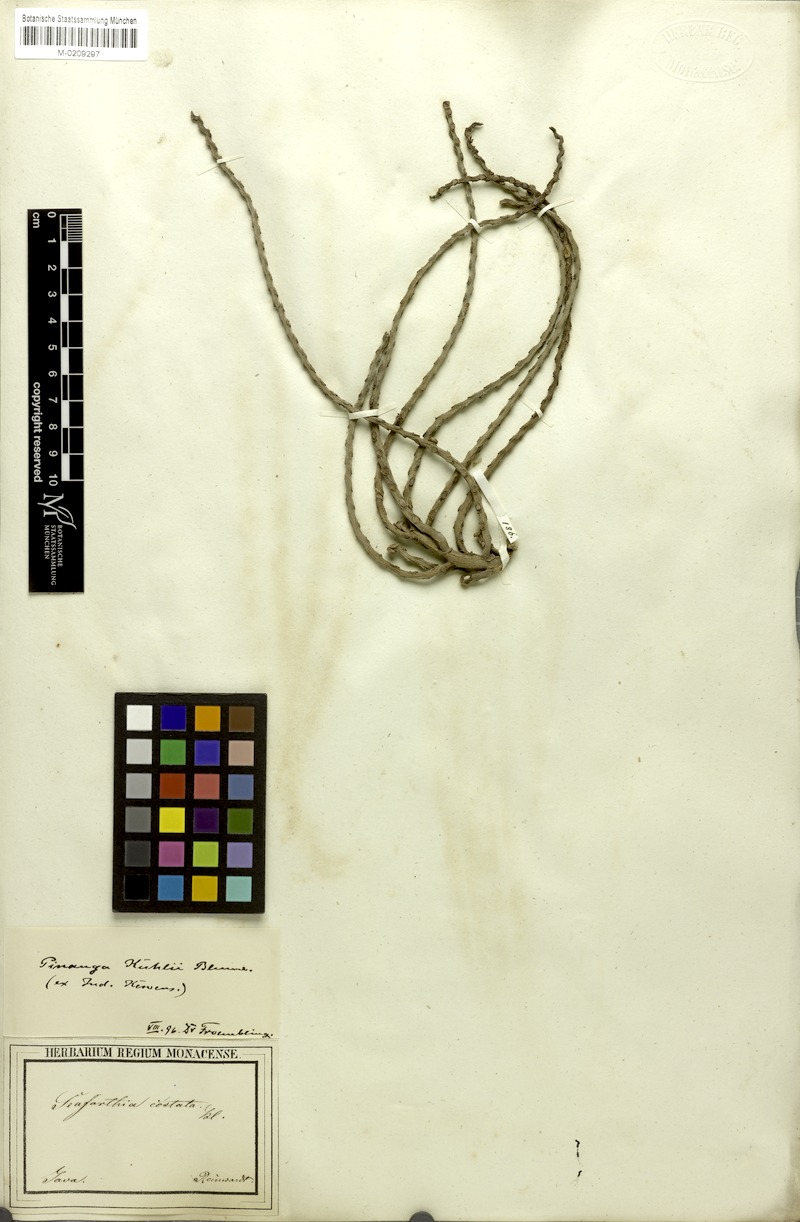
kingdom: Plantae
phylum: Tracheophyta
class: Liliopsida
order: Arecales
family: Arecaceae
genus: Pinanga
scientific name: Pinanga coronata
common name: Ivory cane palm
